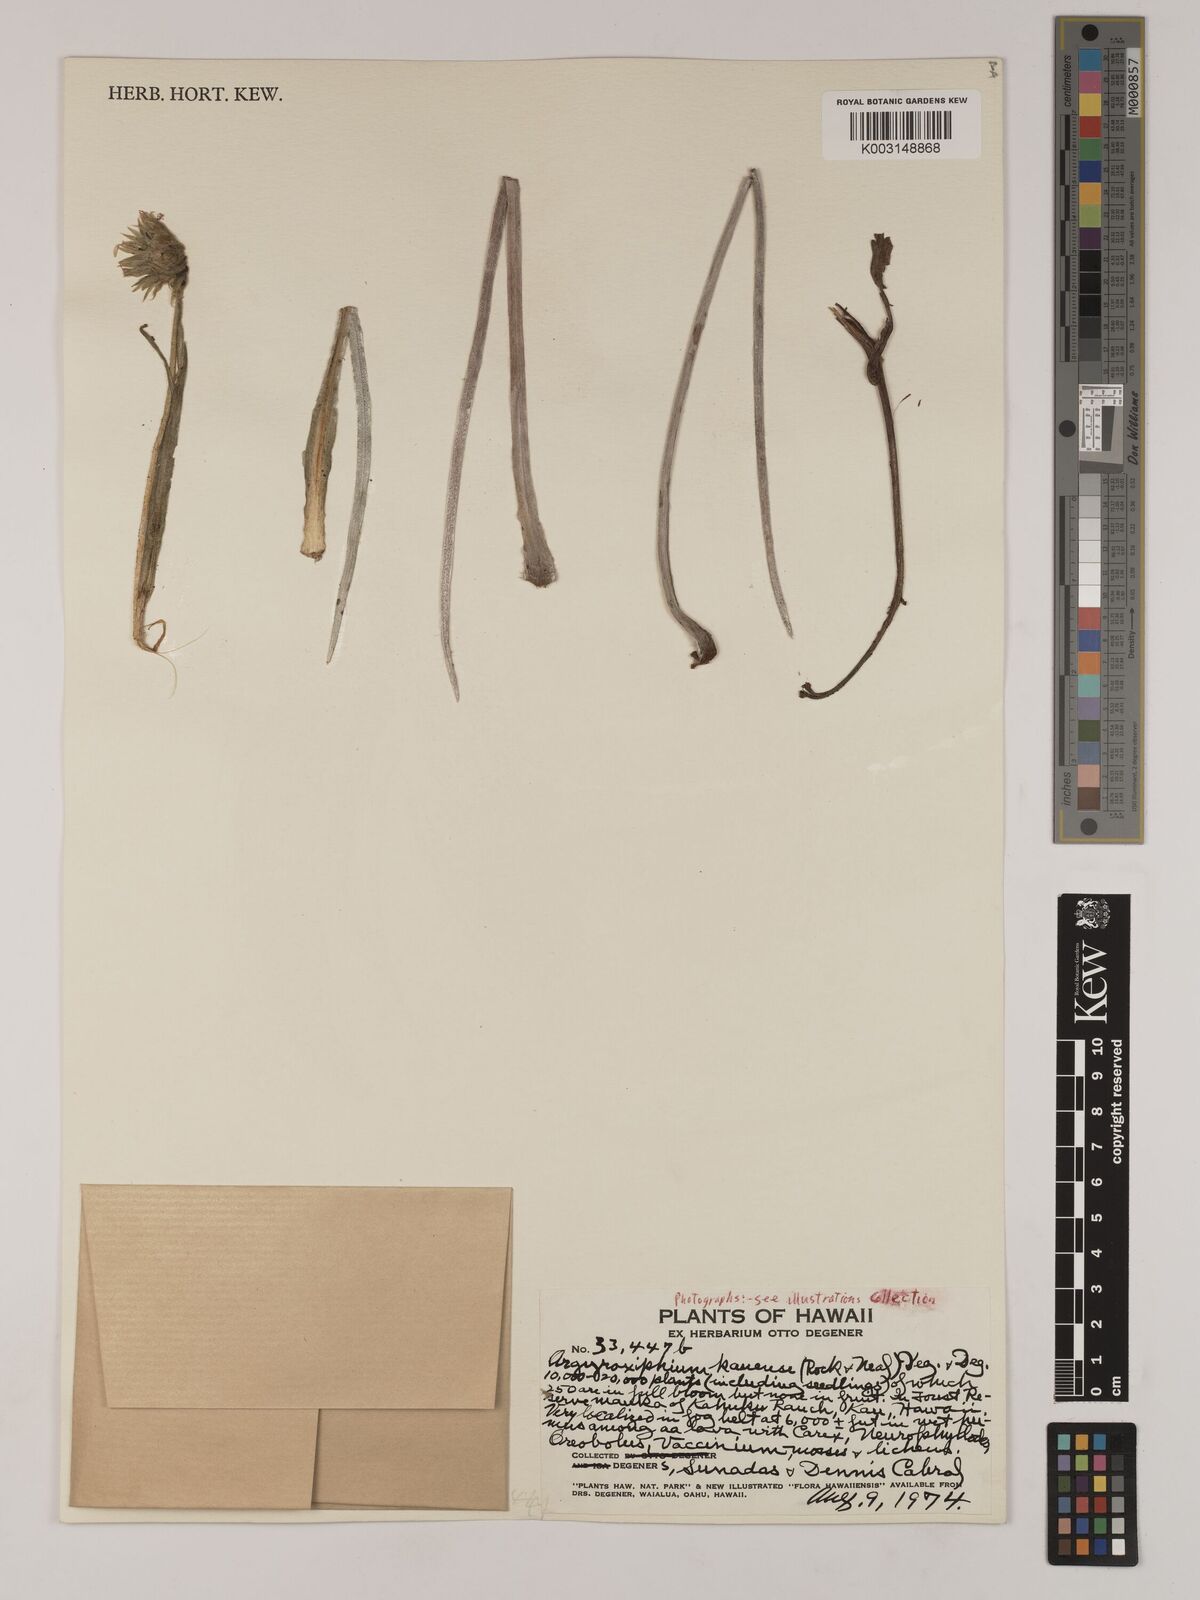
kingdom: Plantae
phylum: Tracheophyta
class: Magnoliopsida
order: Asterales
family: Asteraceae
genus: Argyroxiphium
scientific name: Argyroxiphium kauense
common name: Kau silversword
